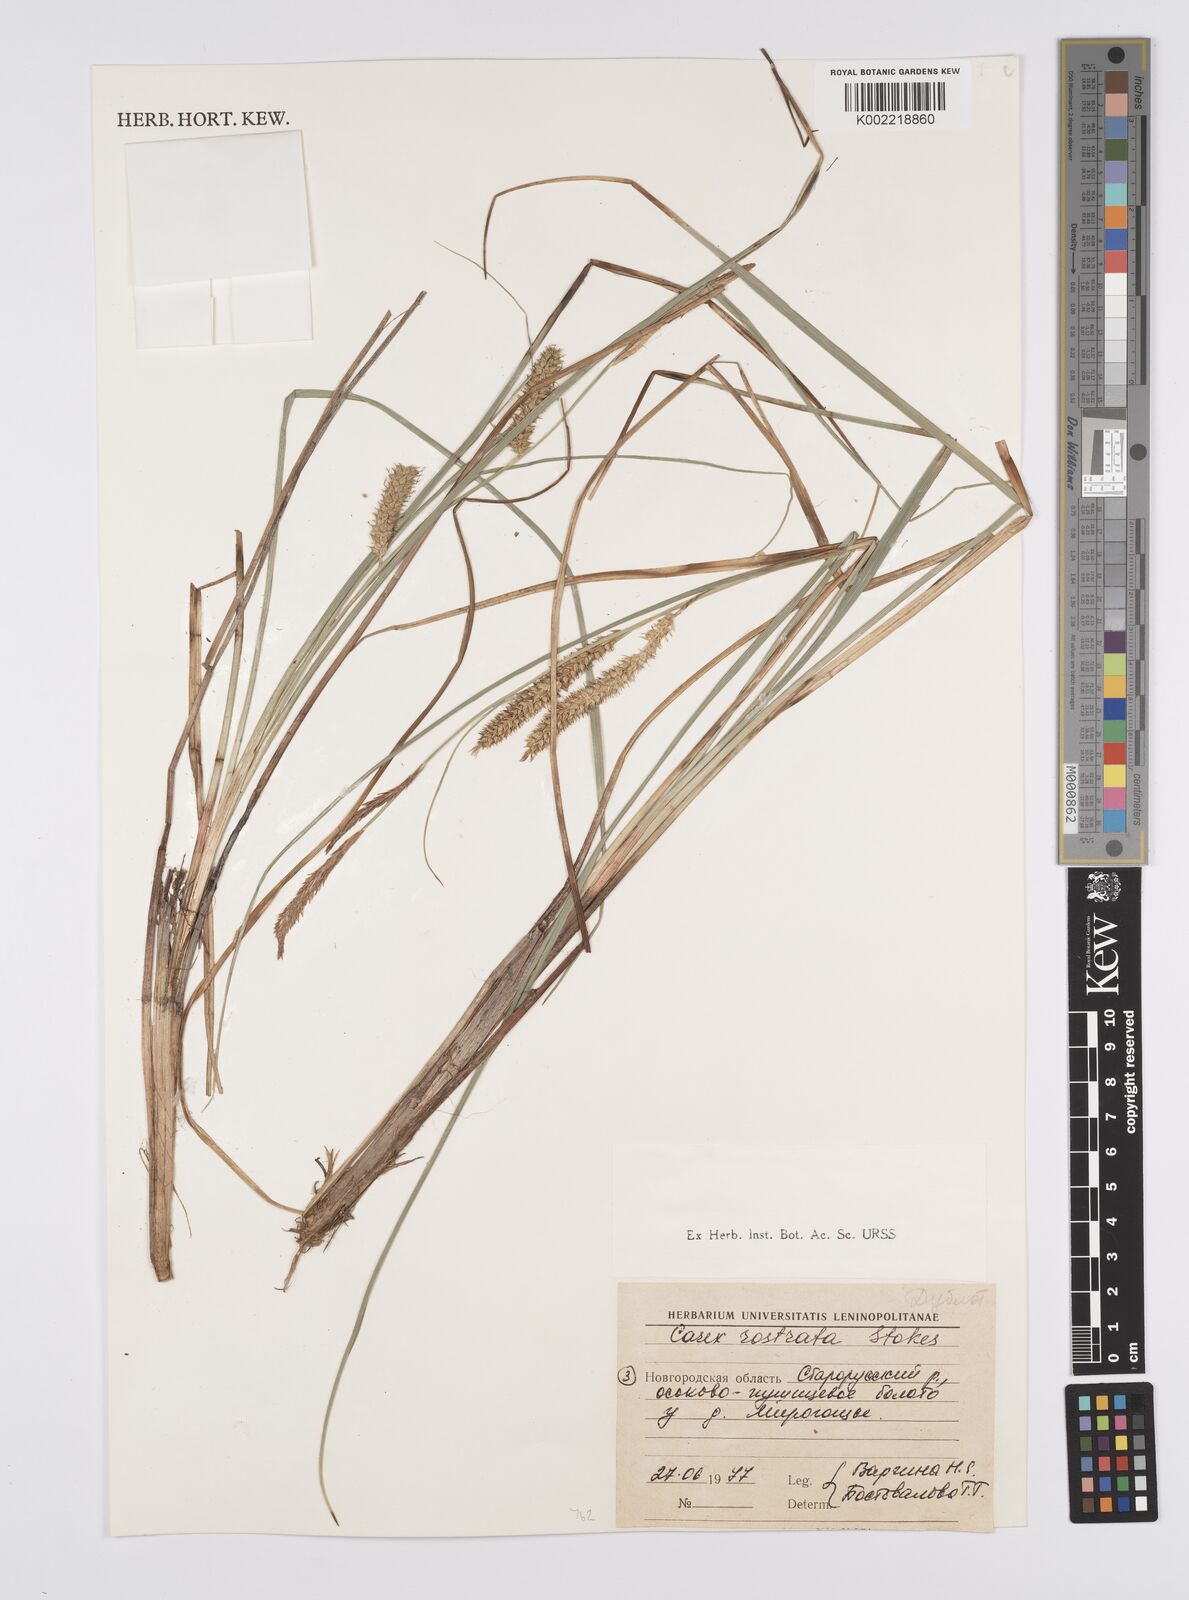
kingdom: Plantae
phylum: Tracheophyta
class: Liliopsida
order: Poales
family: Cyperaceae
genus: Carex
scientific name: Carex michauxiana
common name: Michaux's sedge
